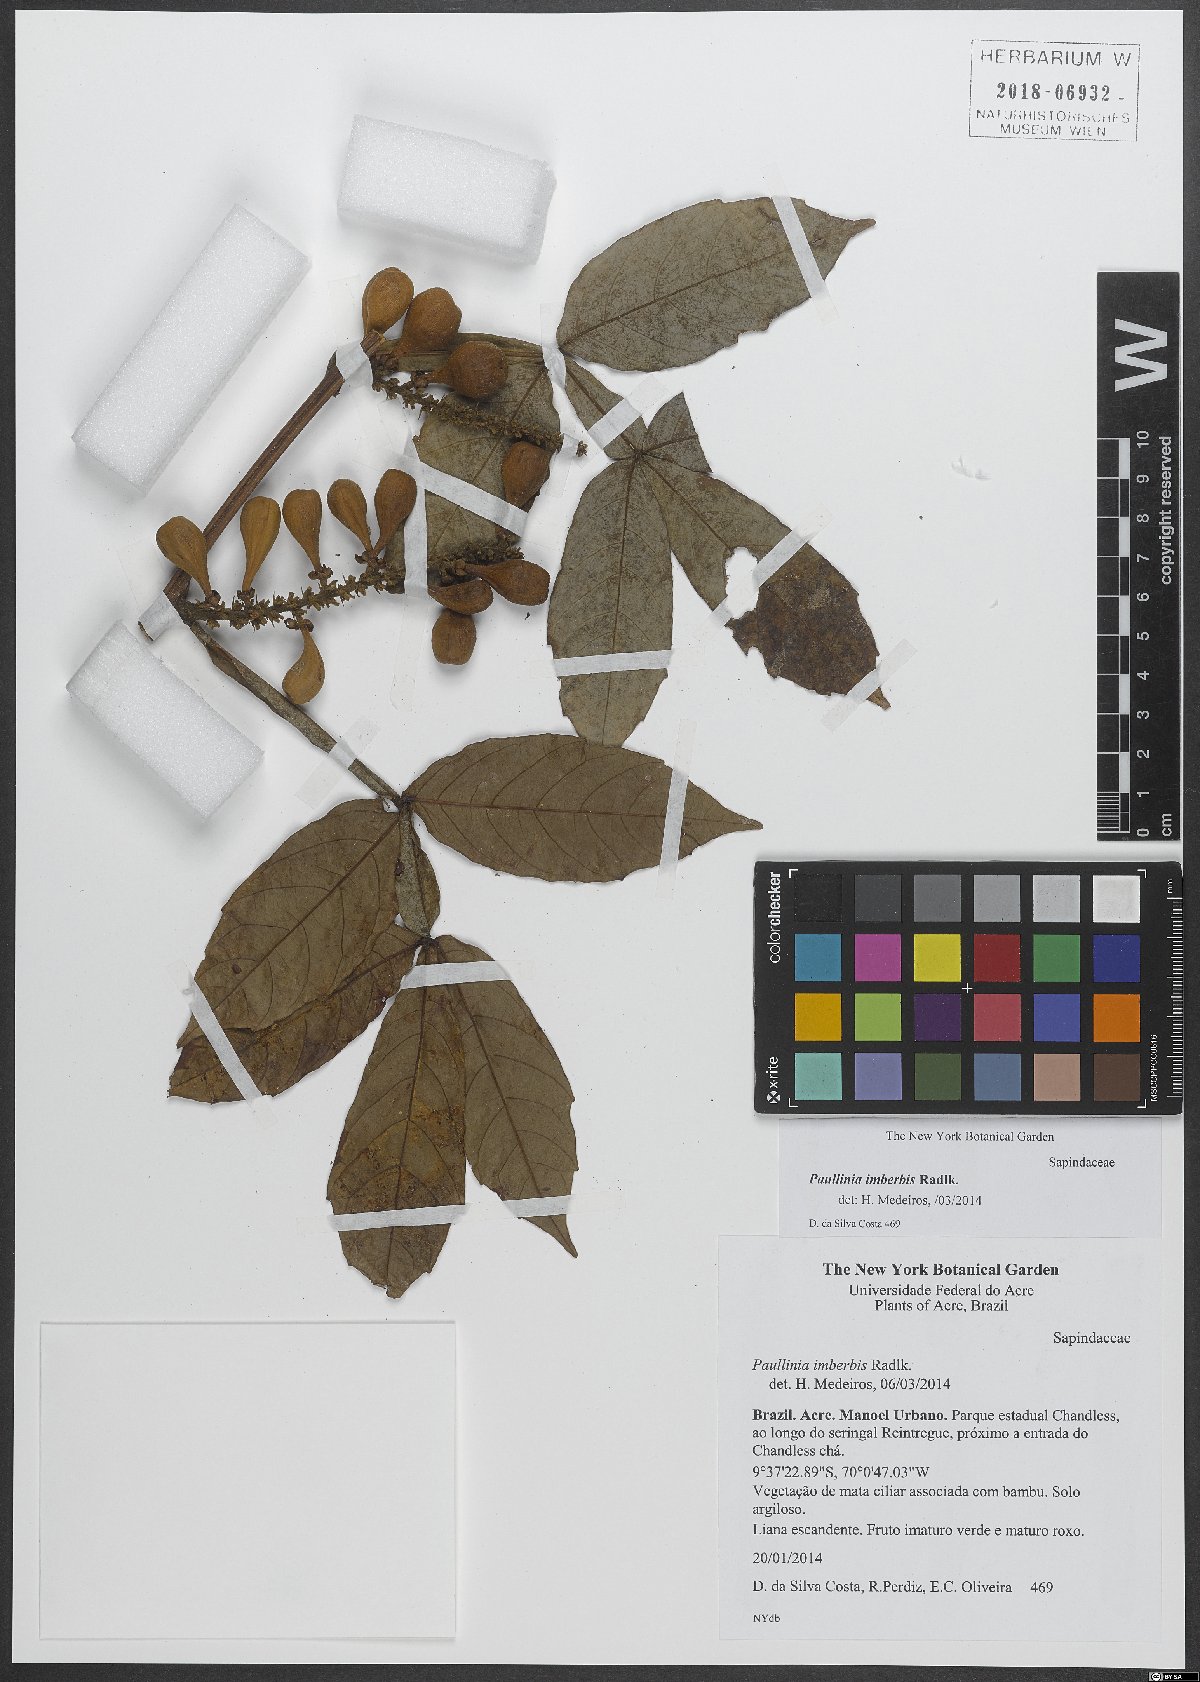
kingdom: Plantae
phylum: Tracheophyta
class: Magnoliopsida
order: Sapindales
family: Sapindaceae
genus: Paullinia
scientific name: Paullinia imberbis
